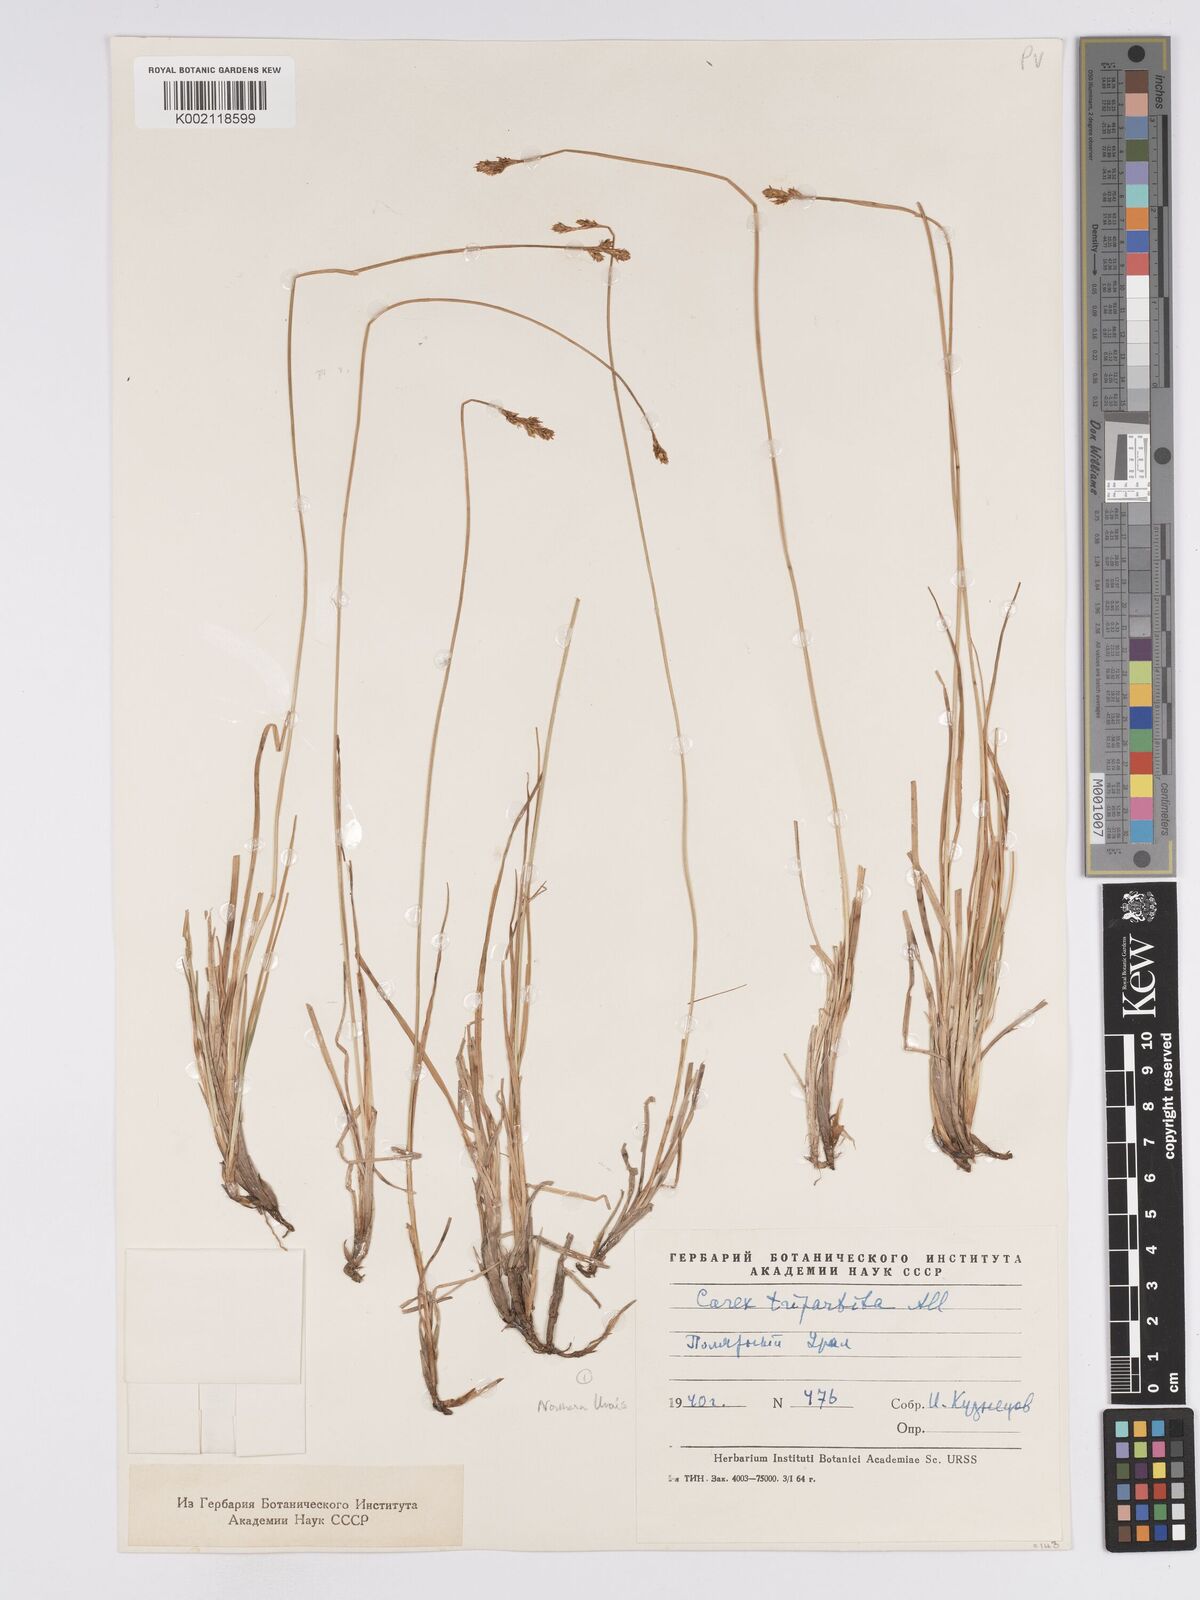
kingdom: Plantae
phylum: Tracheophyta
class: Liliopsida
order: Poales
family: Cyperaceae
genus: Carex
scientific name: Carex lachenalii
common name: Hare's-foot sedge
